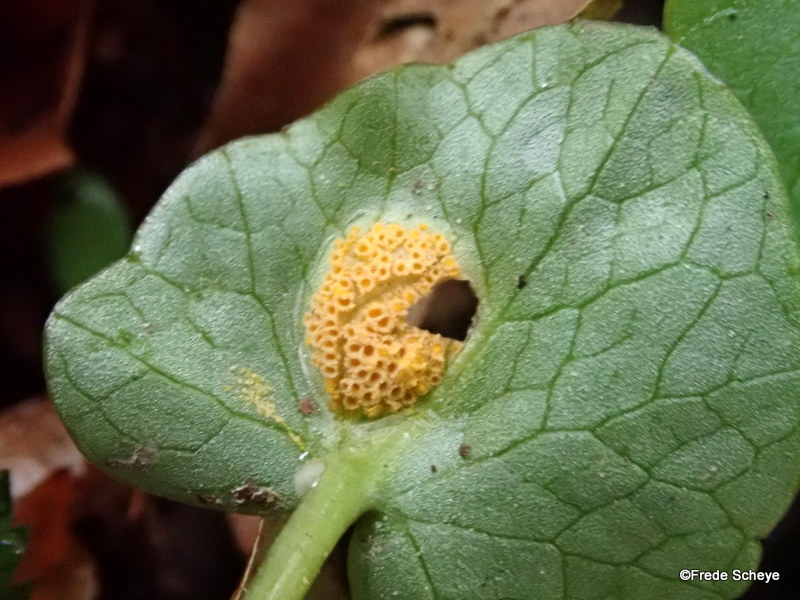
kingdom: Fungi
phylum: Basidiomycota
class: Pucciniomycetes
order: Pucciniales
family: Pucciniaceae
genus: Uromyces
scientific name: Uromyces dactylidis
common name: ranunkel-encellerust
